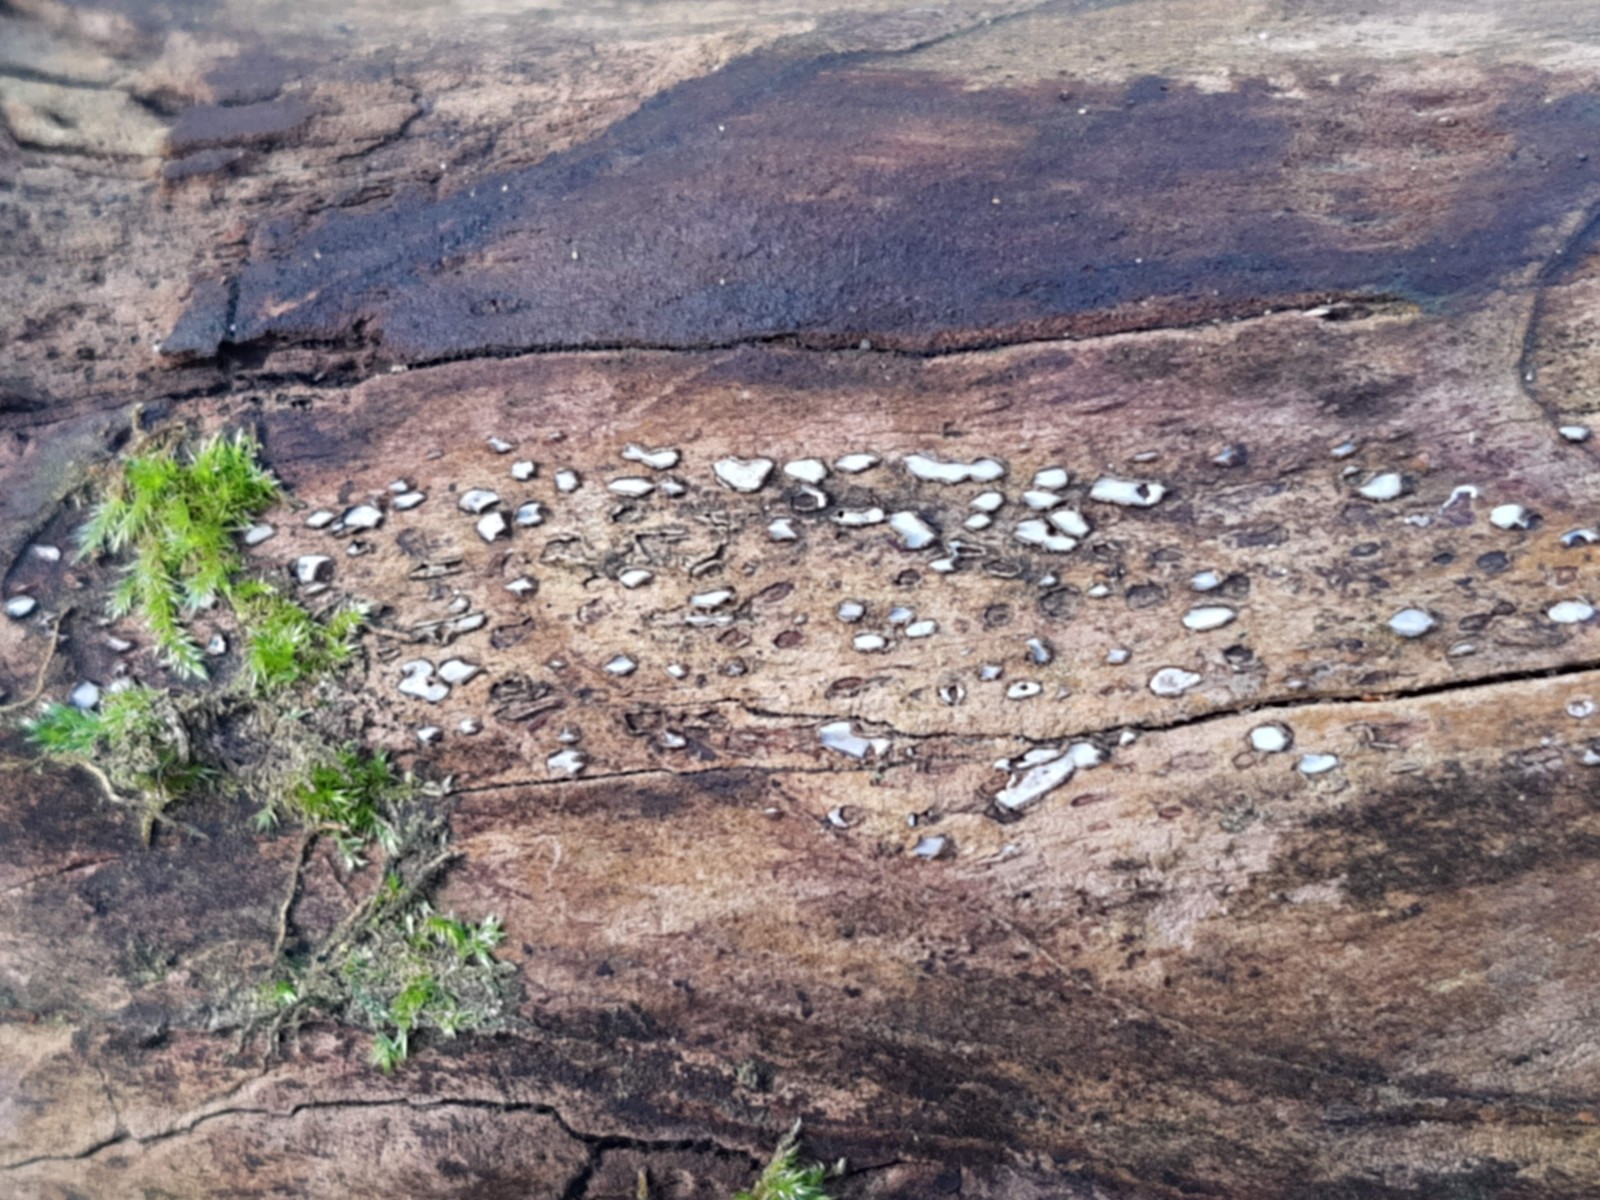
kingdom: Fungi
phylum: Ascomycota
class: Leotiomycetes
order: Chaetomellales
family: Marthamycetaceae
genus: Propolis
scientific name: Propolis farinosa
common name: almindelig vedsprængerskive
